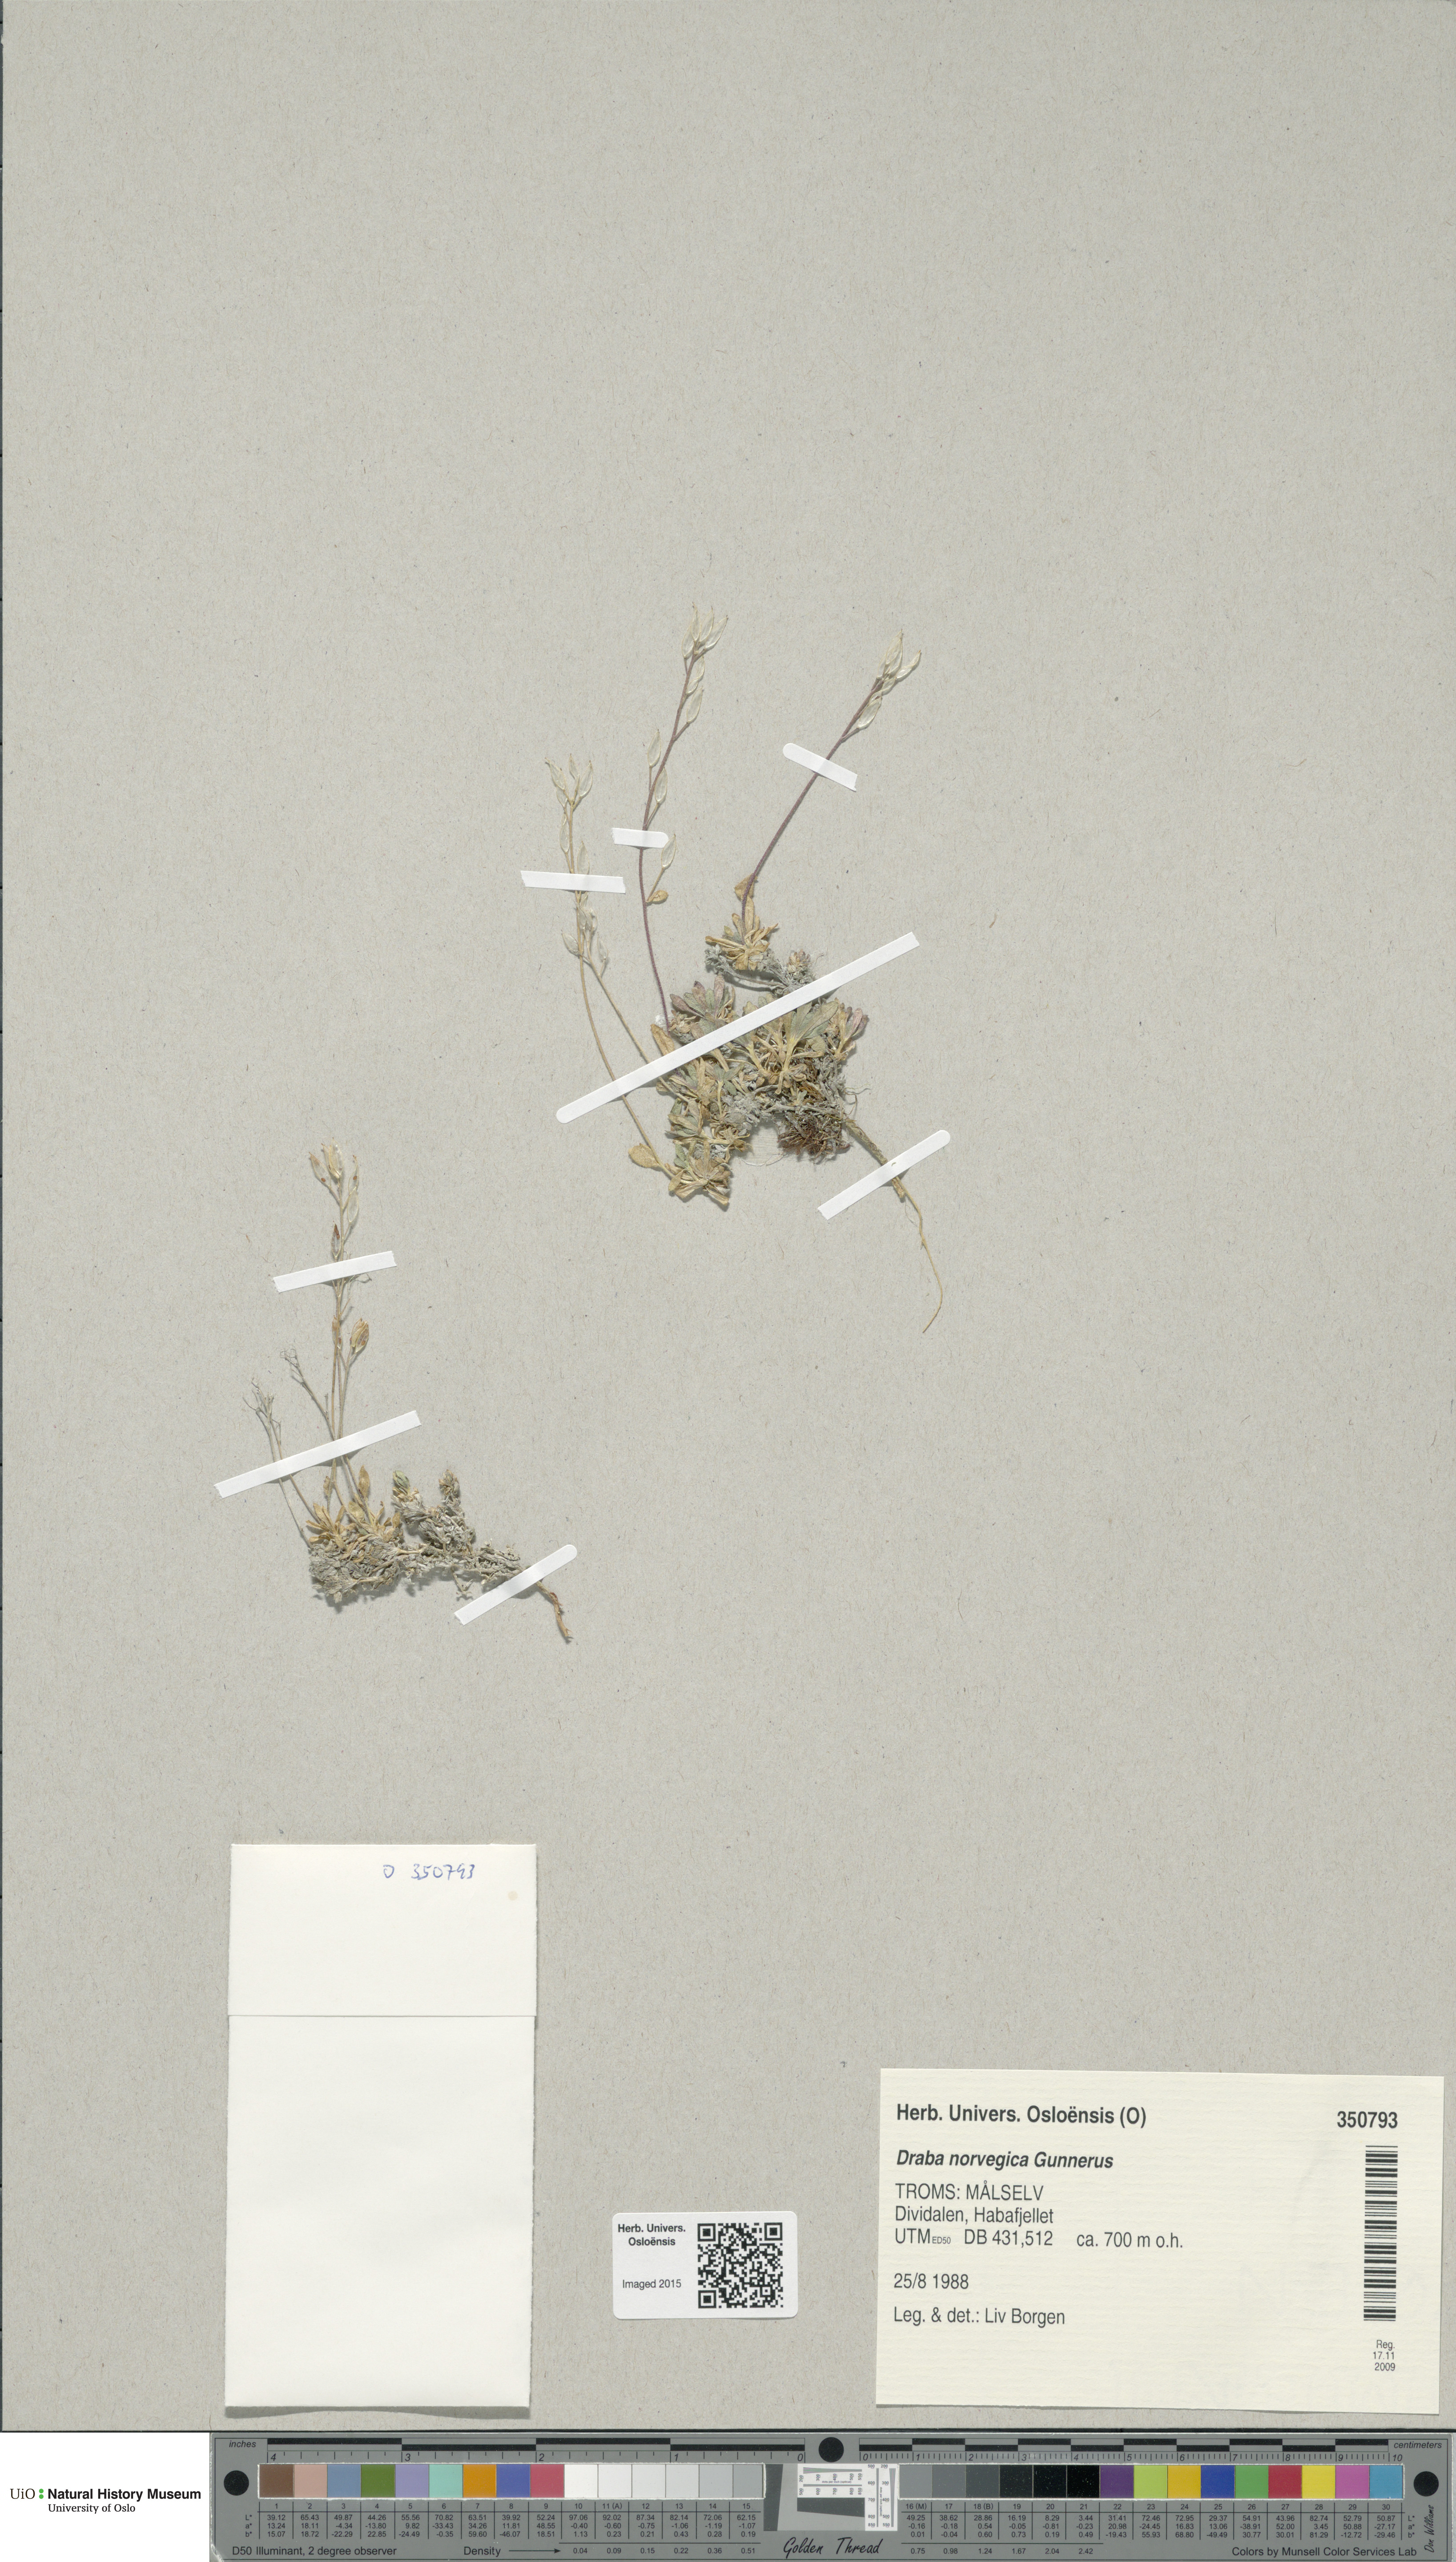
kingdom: Plantae
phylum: Tracheophyta
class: Magnoliopsida
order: Brassicales
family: Brassicaceae
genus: Draba
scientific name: Draba norvegica
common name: Rock whitlowgrass
